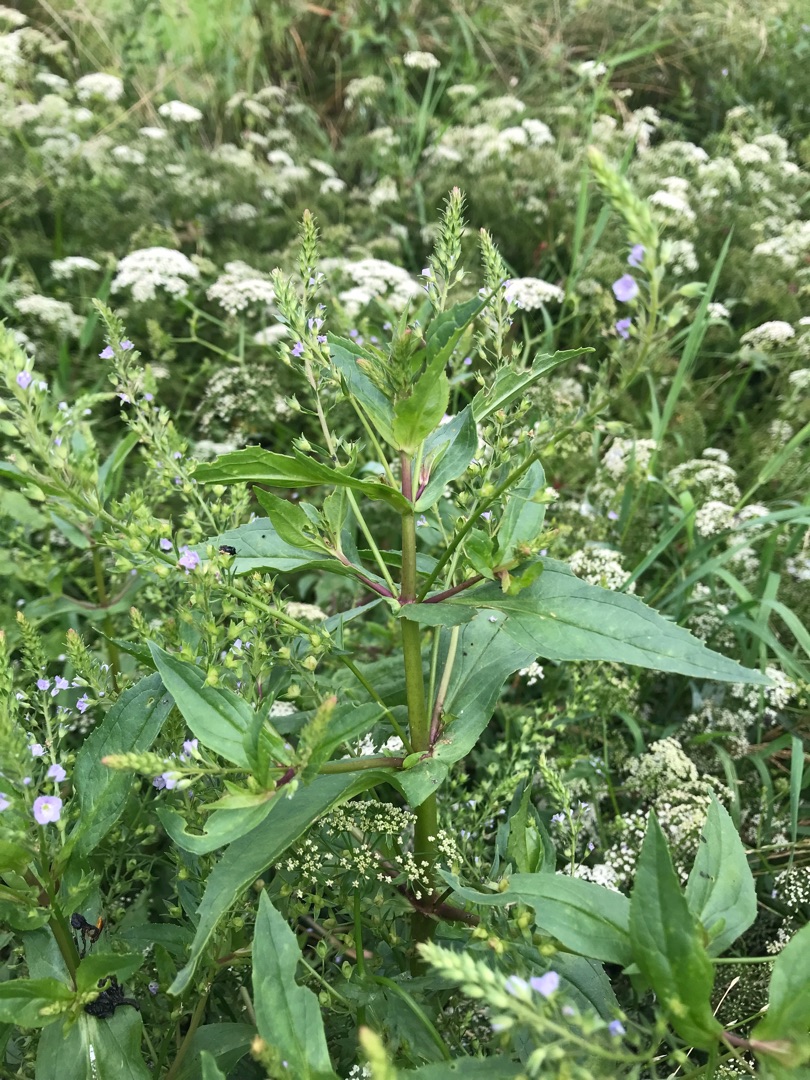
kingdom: Plantae
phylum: Tracheophyta
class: Magnoliopsida
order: Lamiales
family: Plantaginaceae
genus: Veronica
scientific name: Veronica anagallis-aquatica
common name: Lancetbladet ærenpris
